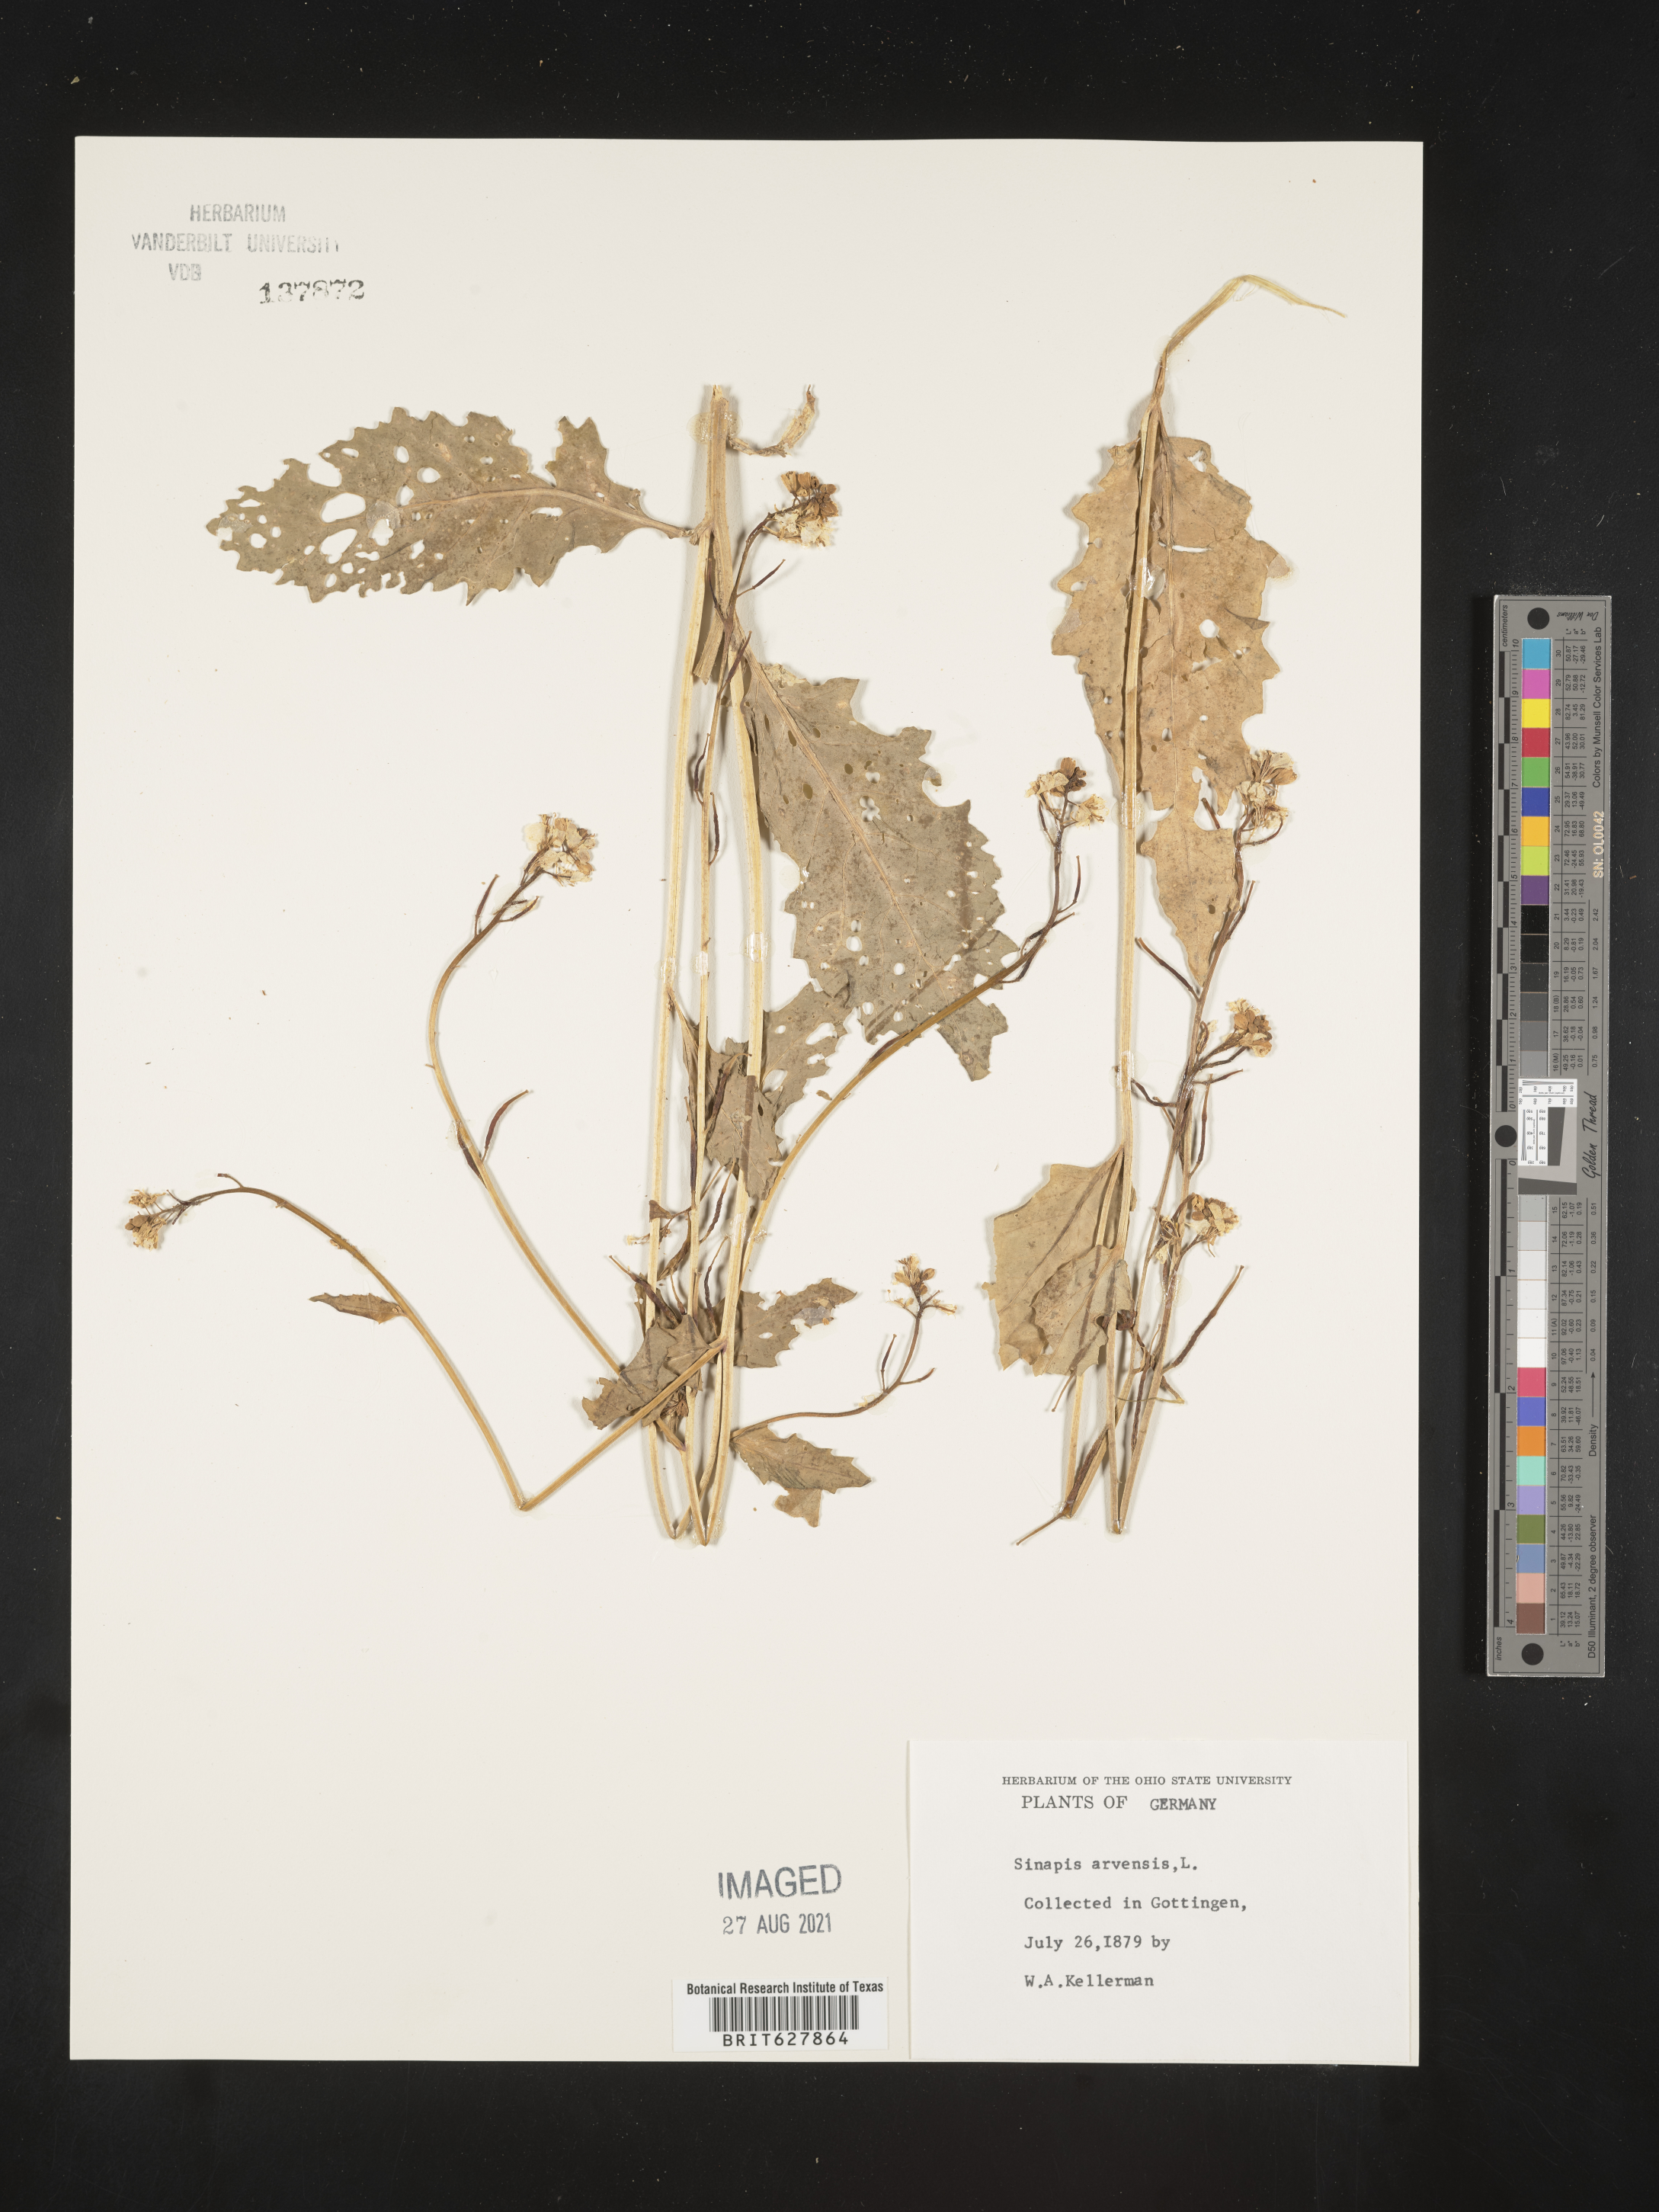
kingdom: Plantae
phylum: Tracheophyta
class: Magnoliopsida
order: Brassicales
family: Brassicaceae
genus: Sinapis
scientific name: Sinapis arvensis
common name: Charlock
